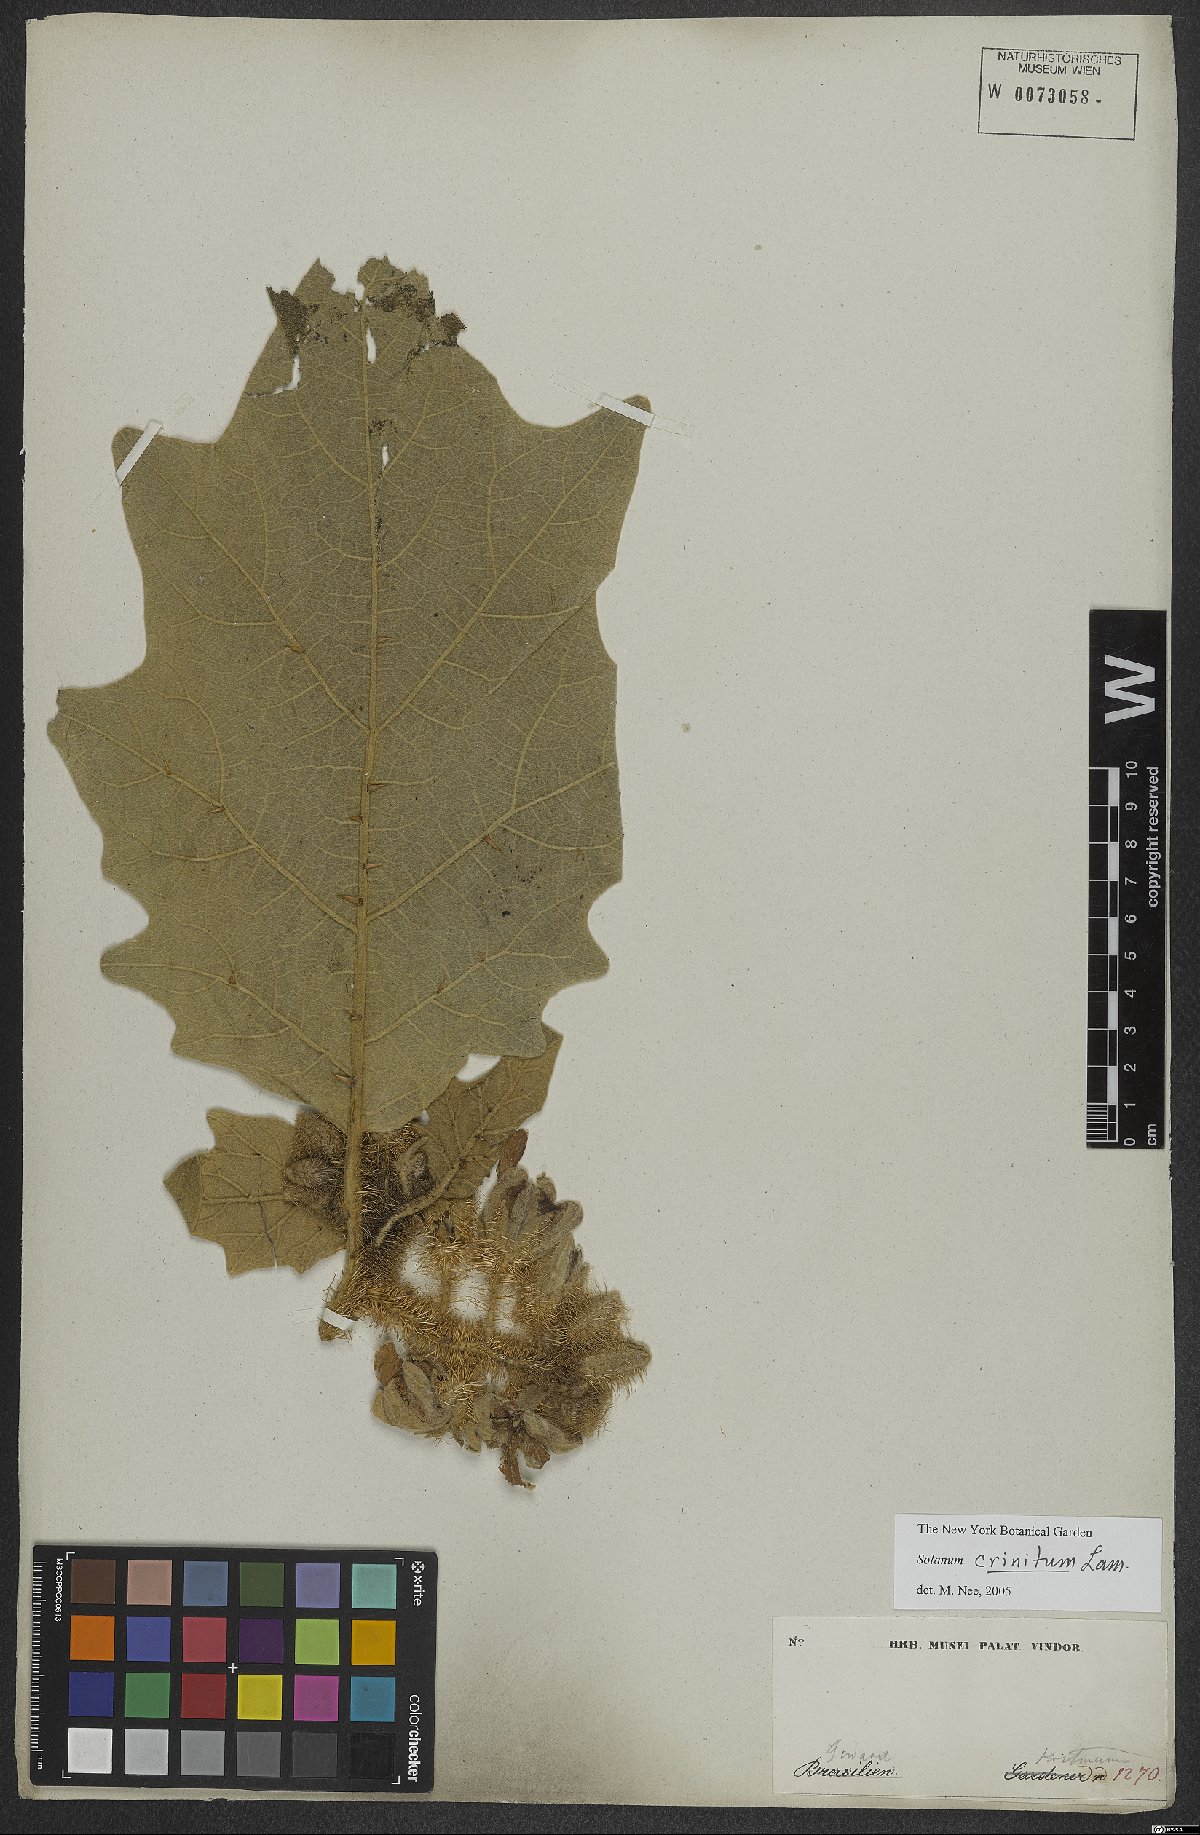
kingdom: Plantae
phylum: Tracheophyta
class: Magnoliopsida
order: Solanales
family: Solanaceae
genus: Solanum
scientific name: Solanum crinitum
